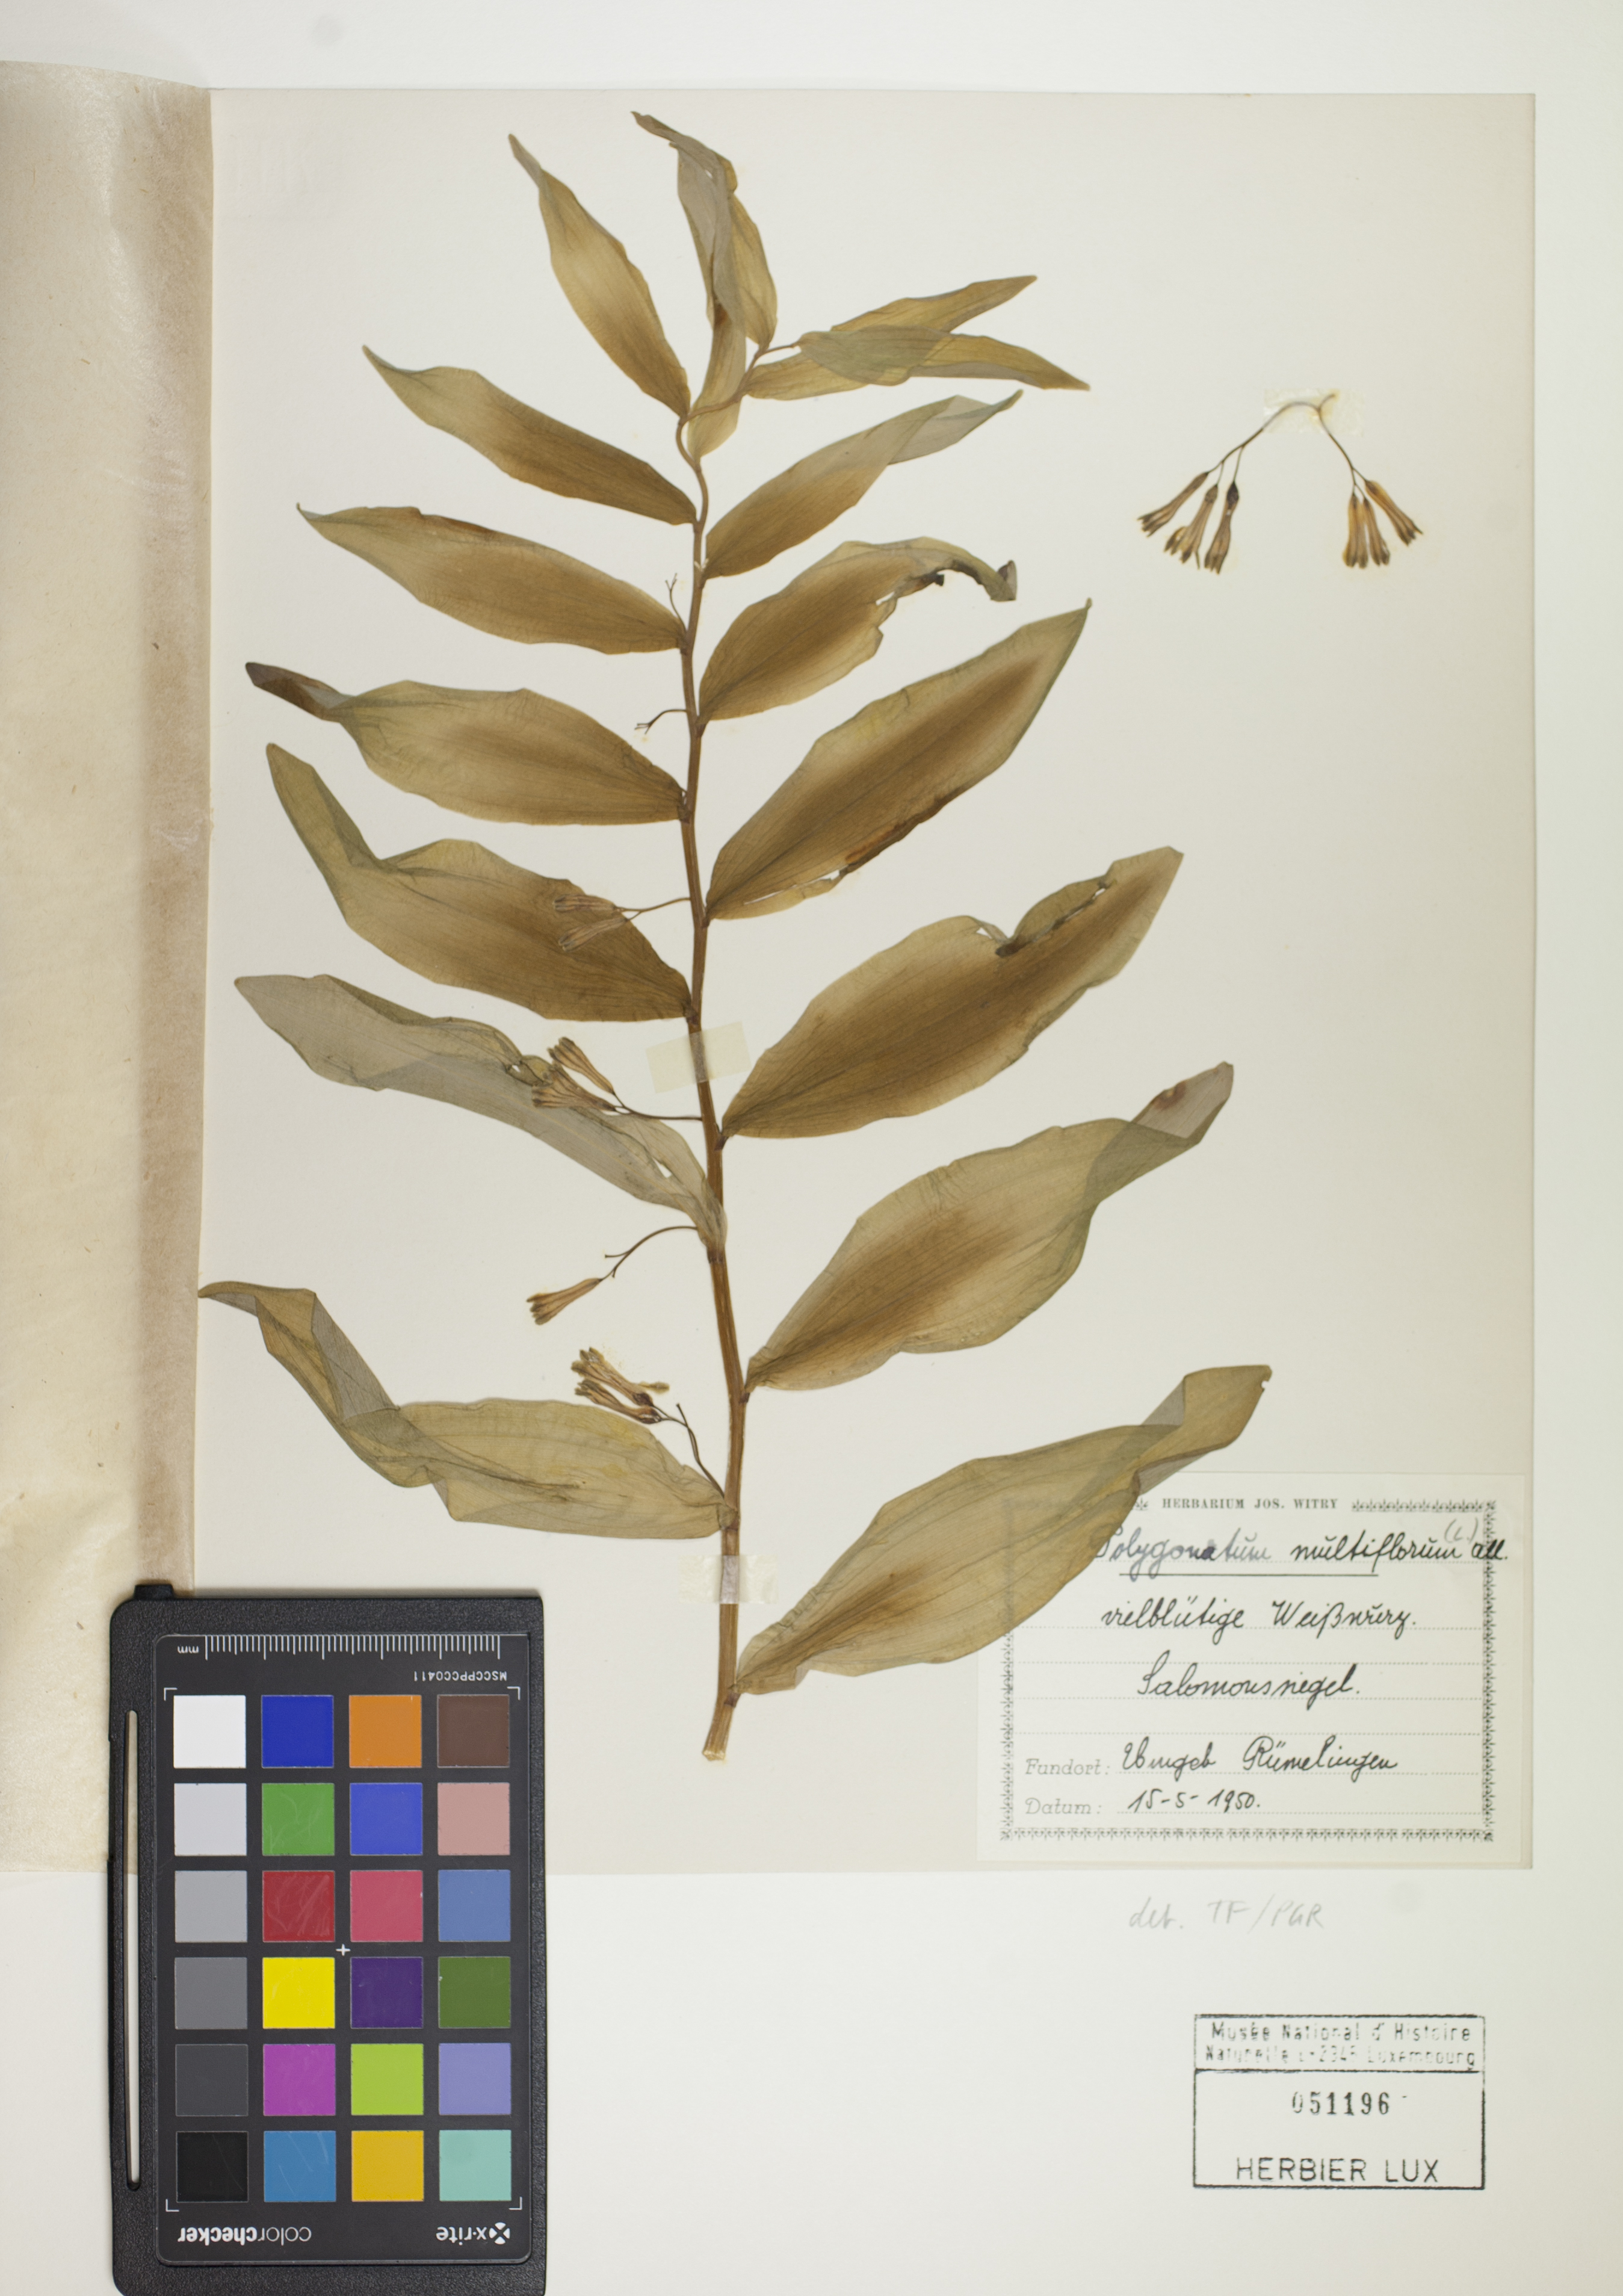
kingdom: Plantae
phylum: Tracheophyta
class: Liliopsida
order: Asparagales
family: Asparagaceae
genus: Polygonatum
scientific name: Polygonatum multiflorum
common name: Solomon's-seal
